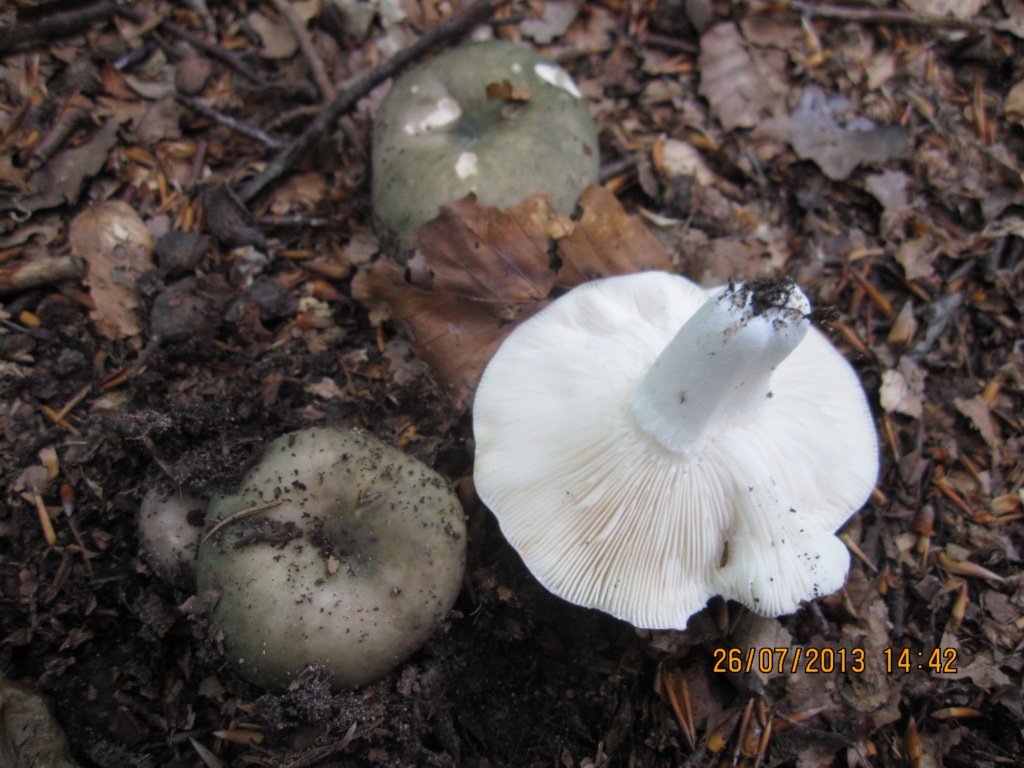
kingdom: Fungi
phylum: Basidiomycota
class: Agaricomycetes
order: Russulales
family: Russulaceae
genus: Russula
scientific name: Russula heterophylla
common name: gaffelbladet skørhat
